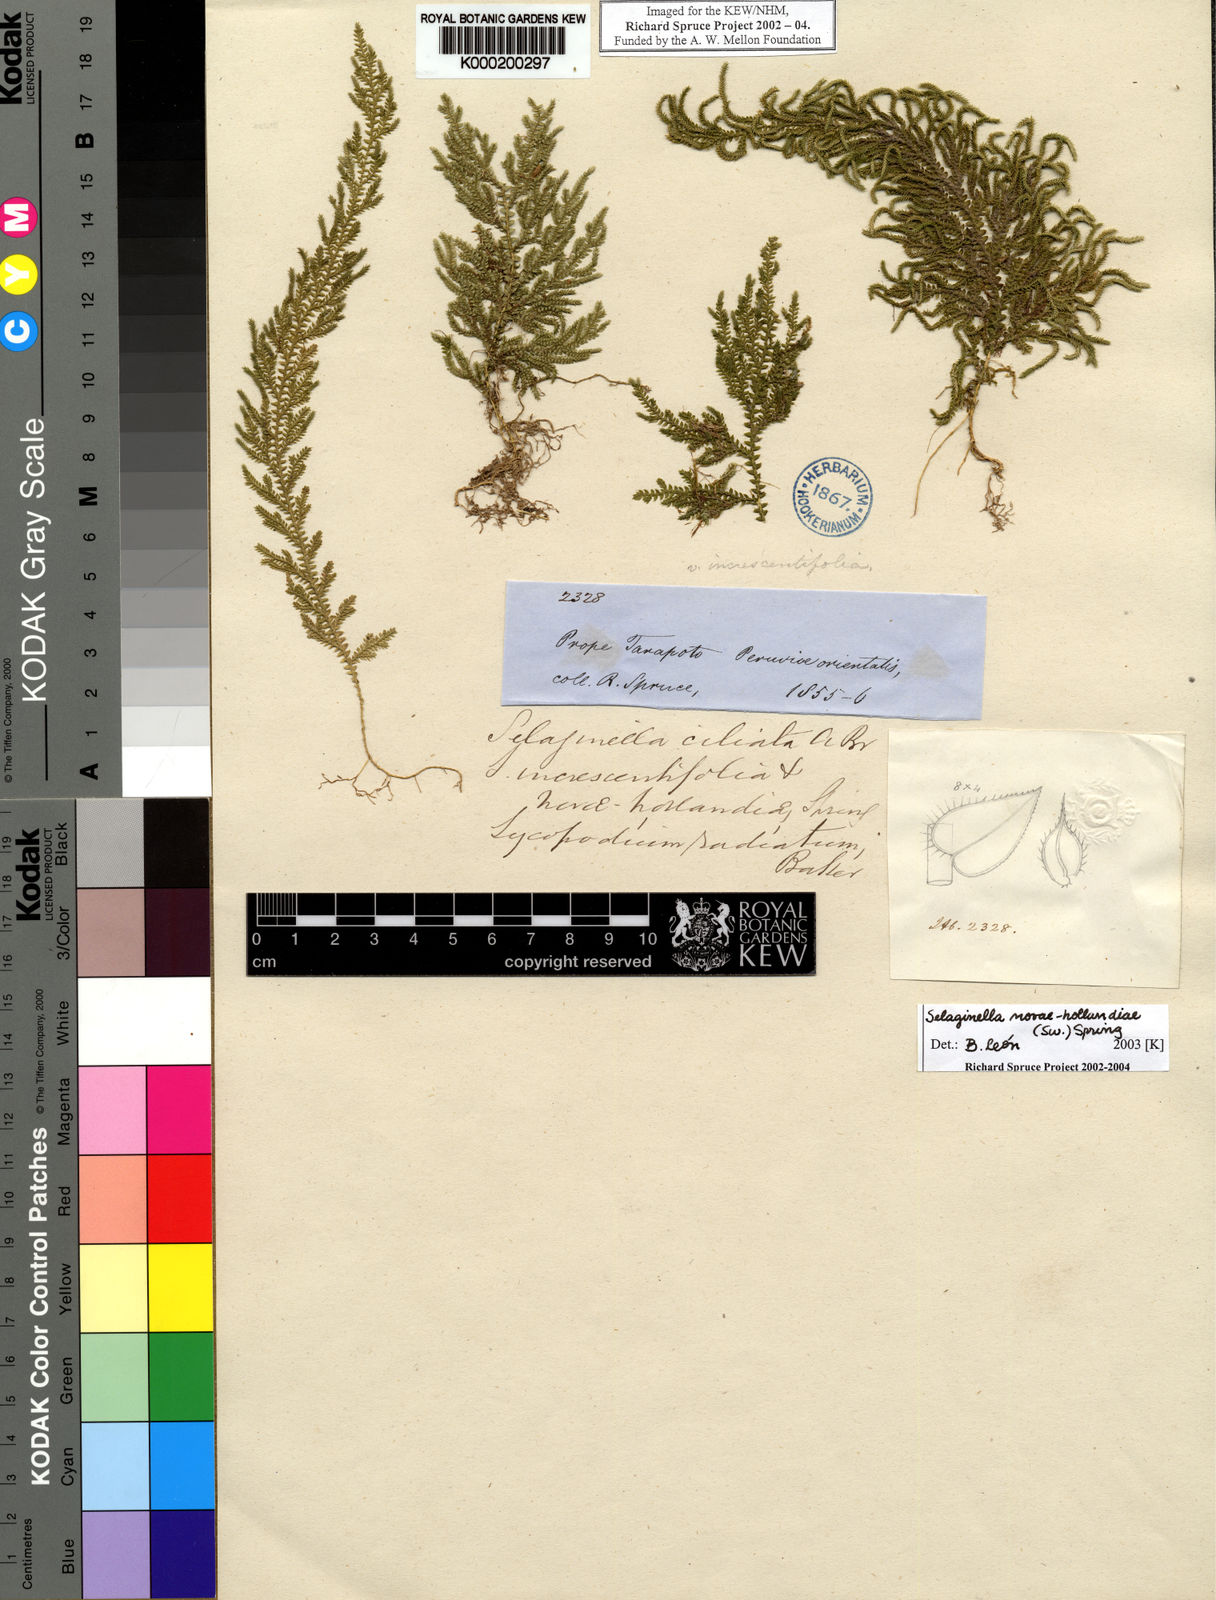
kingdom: Plantae
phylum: Tracheophyta
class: Lycopodiopsida
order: Selaginellales
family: Selaginellaceae
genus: Selaginella
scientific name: Selaginella novae-hollandiae
